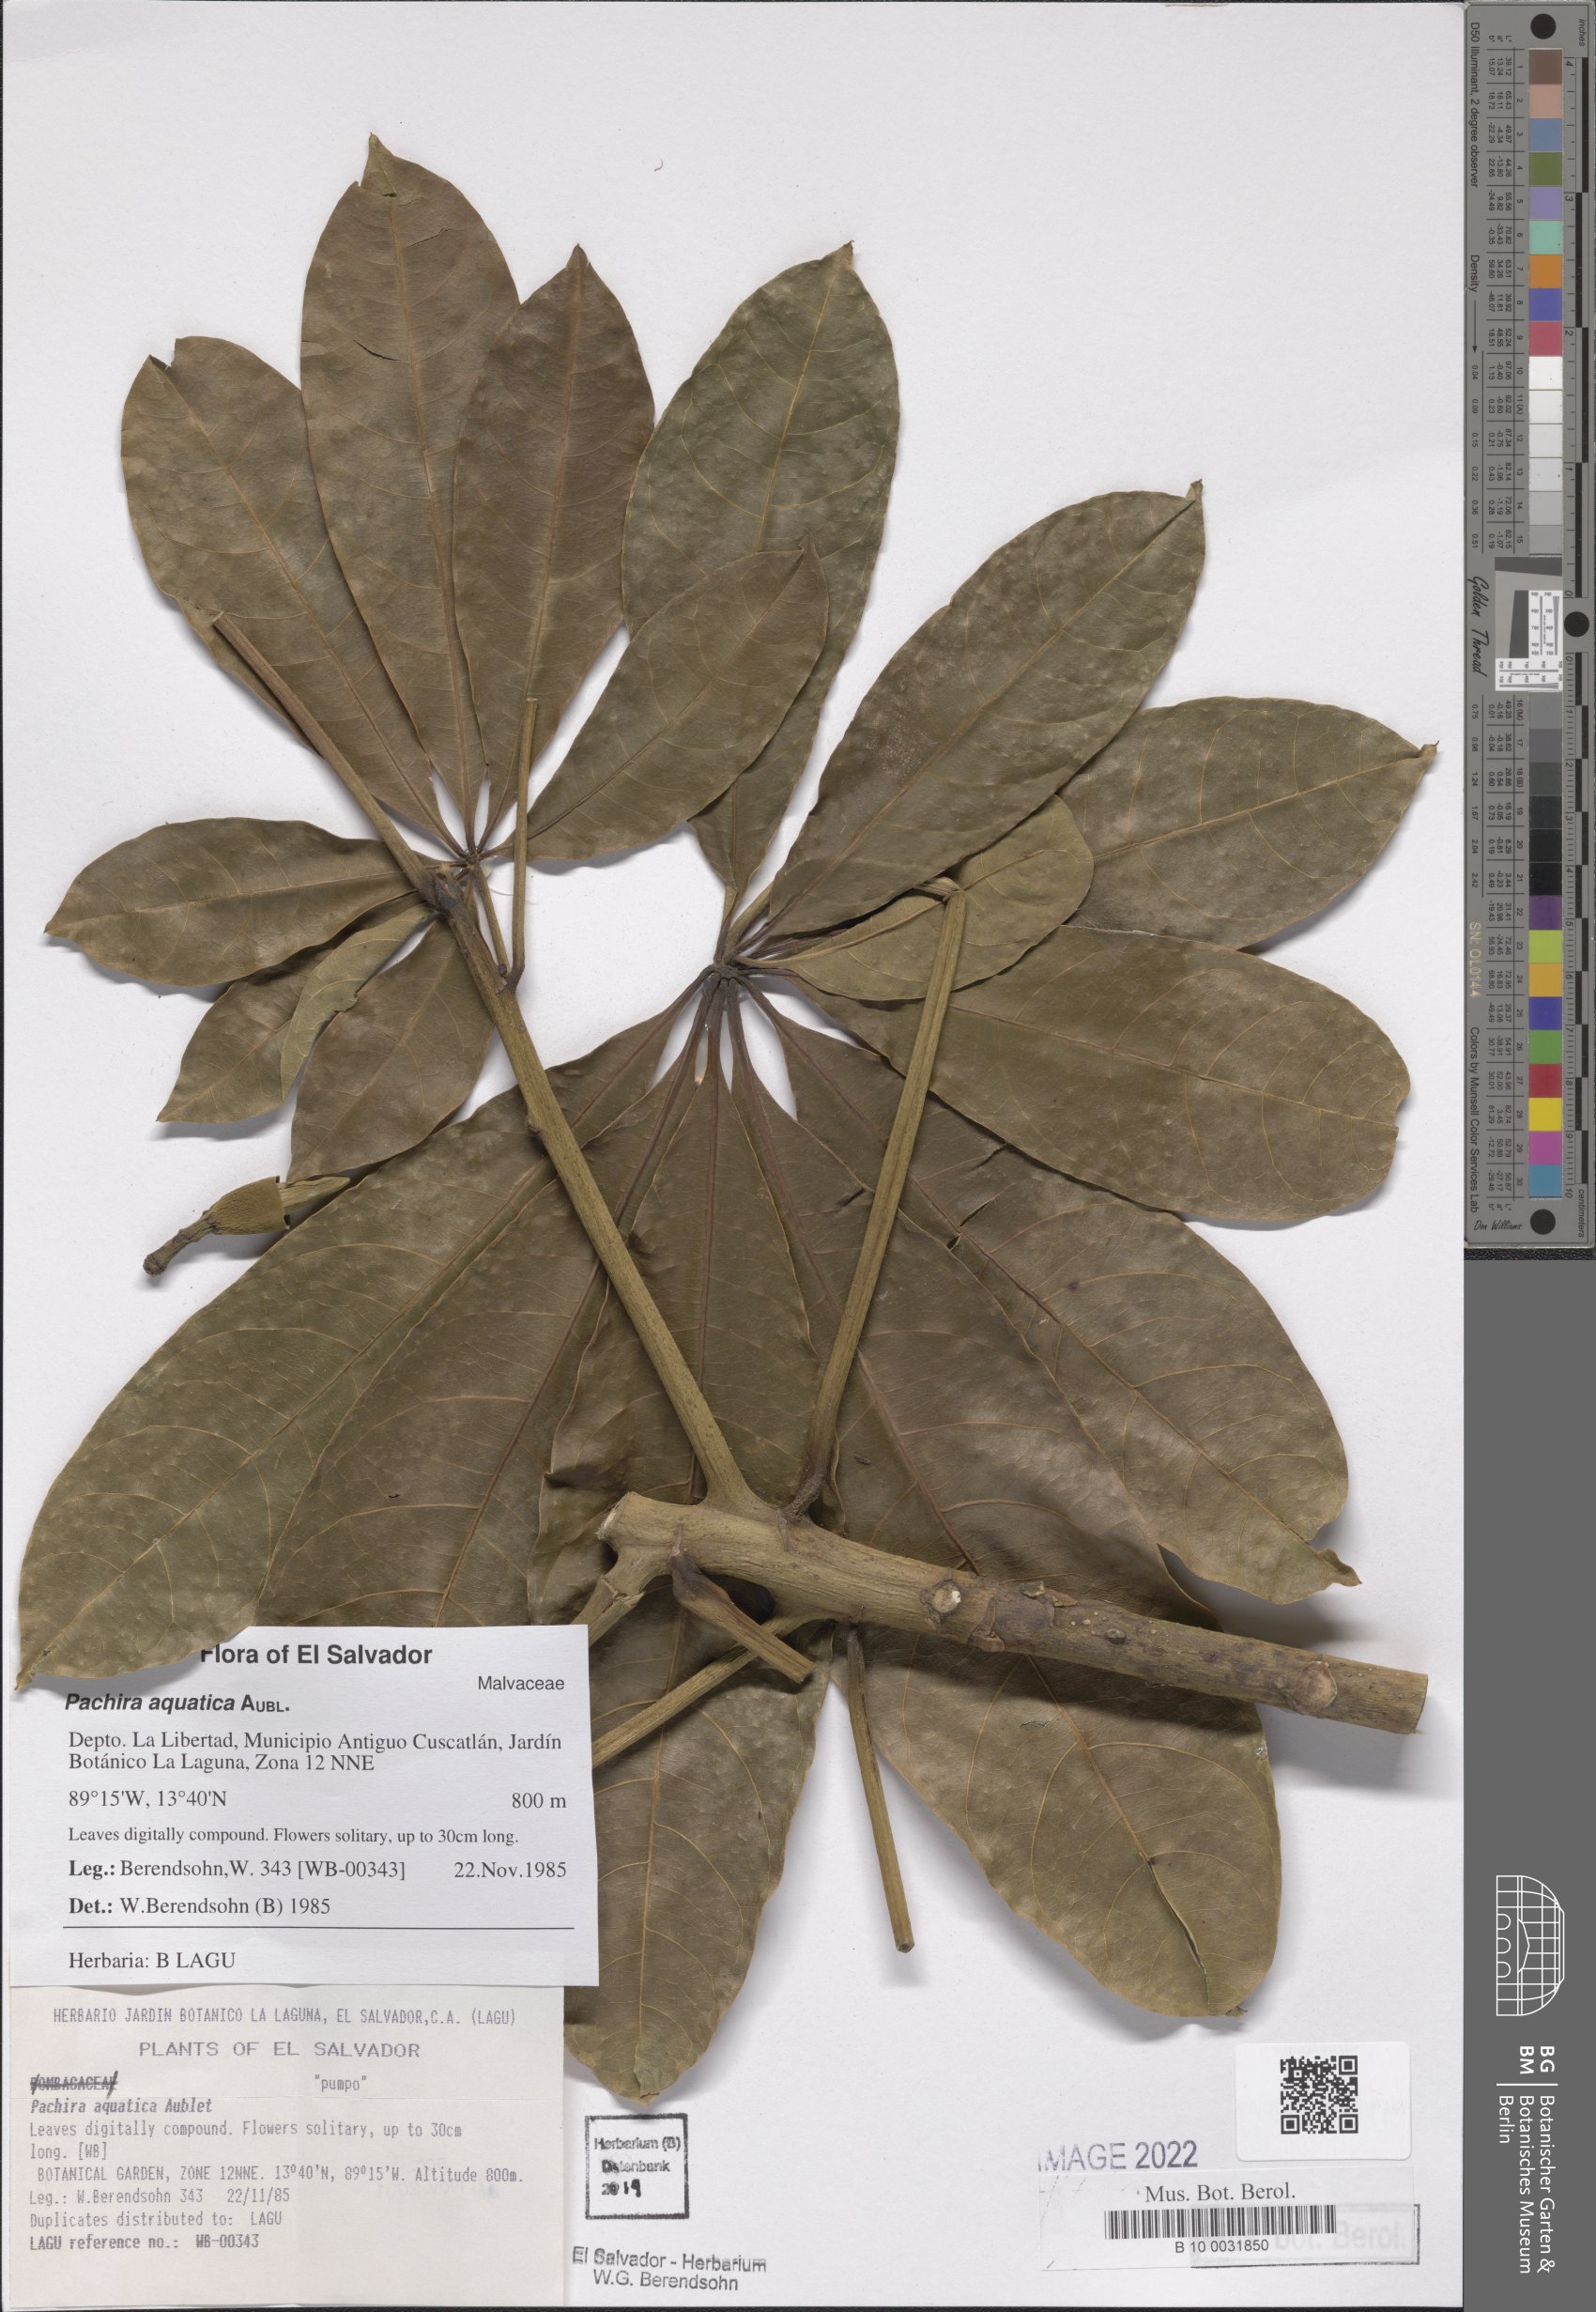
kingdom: Plantae
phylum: Tracheophyta
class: Magnoliopsida
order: Malvales
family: Malvaceae
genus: Pachira
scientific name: Pachira aquatica
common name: Provision-tree
